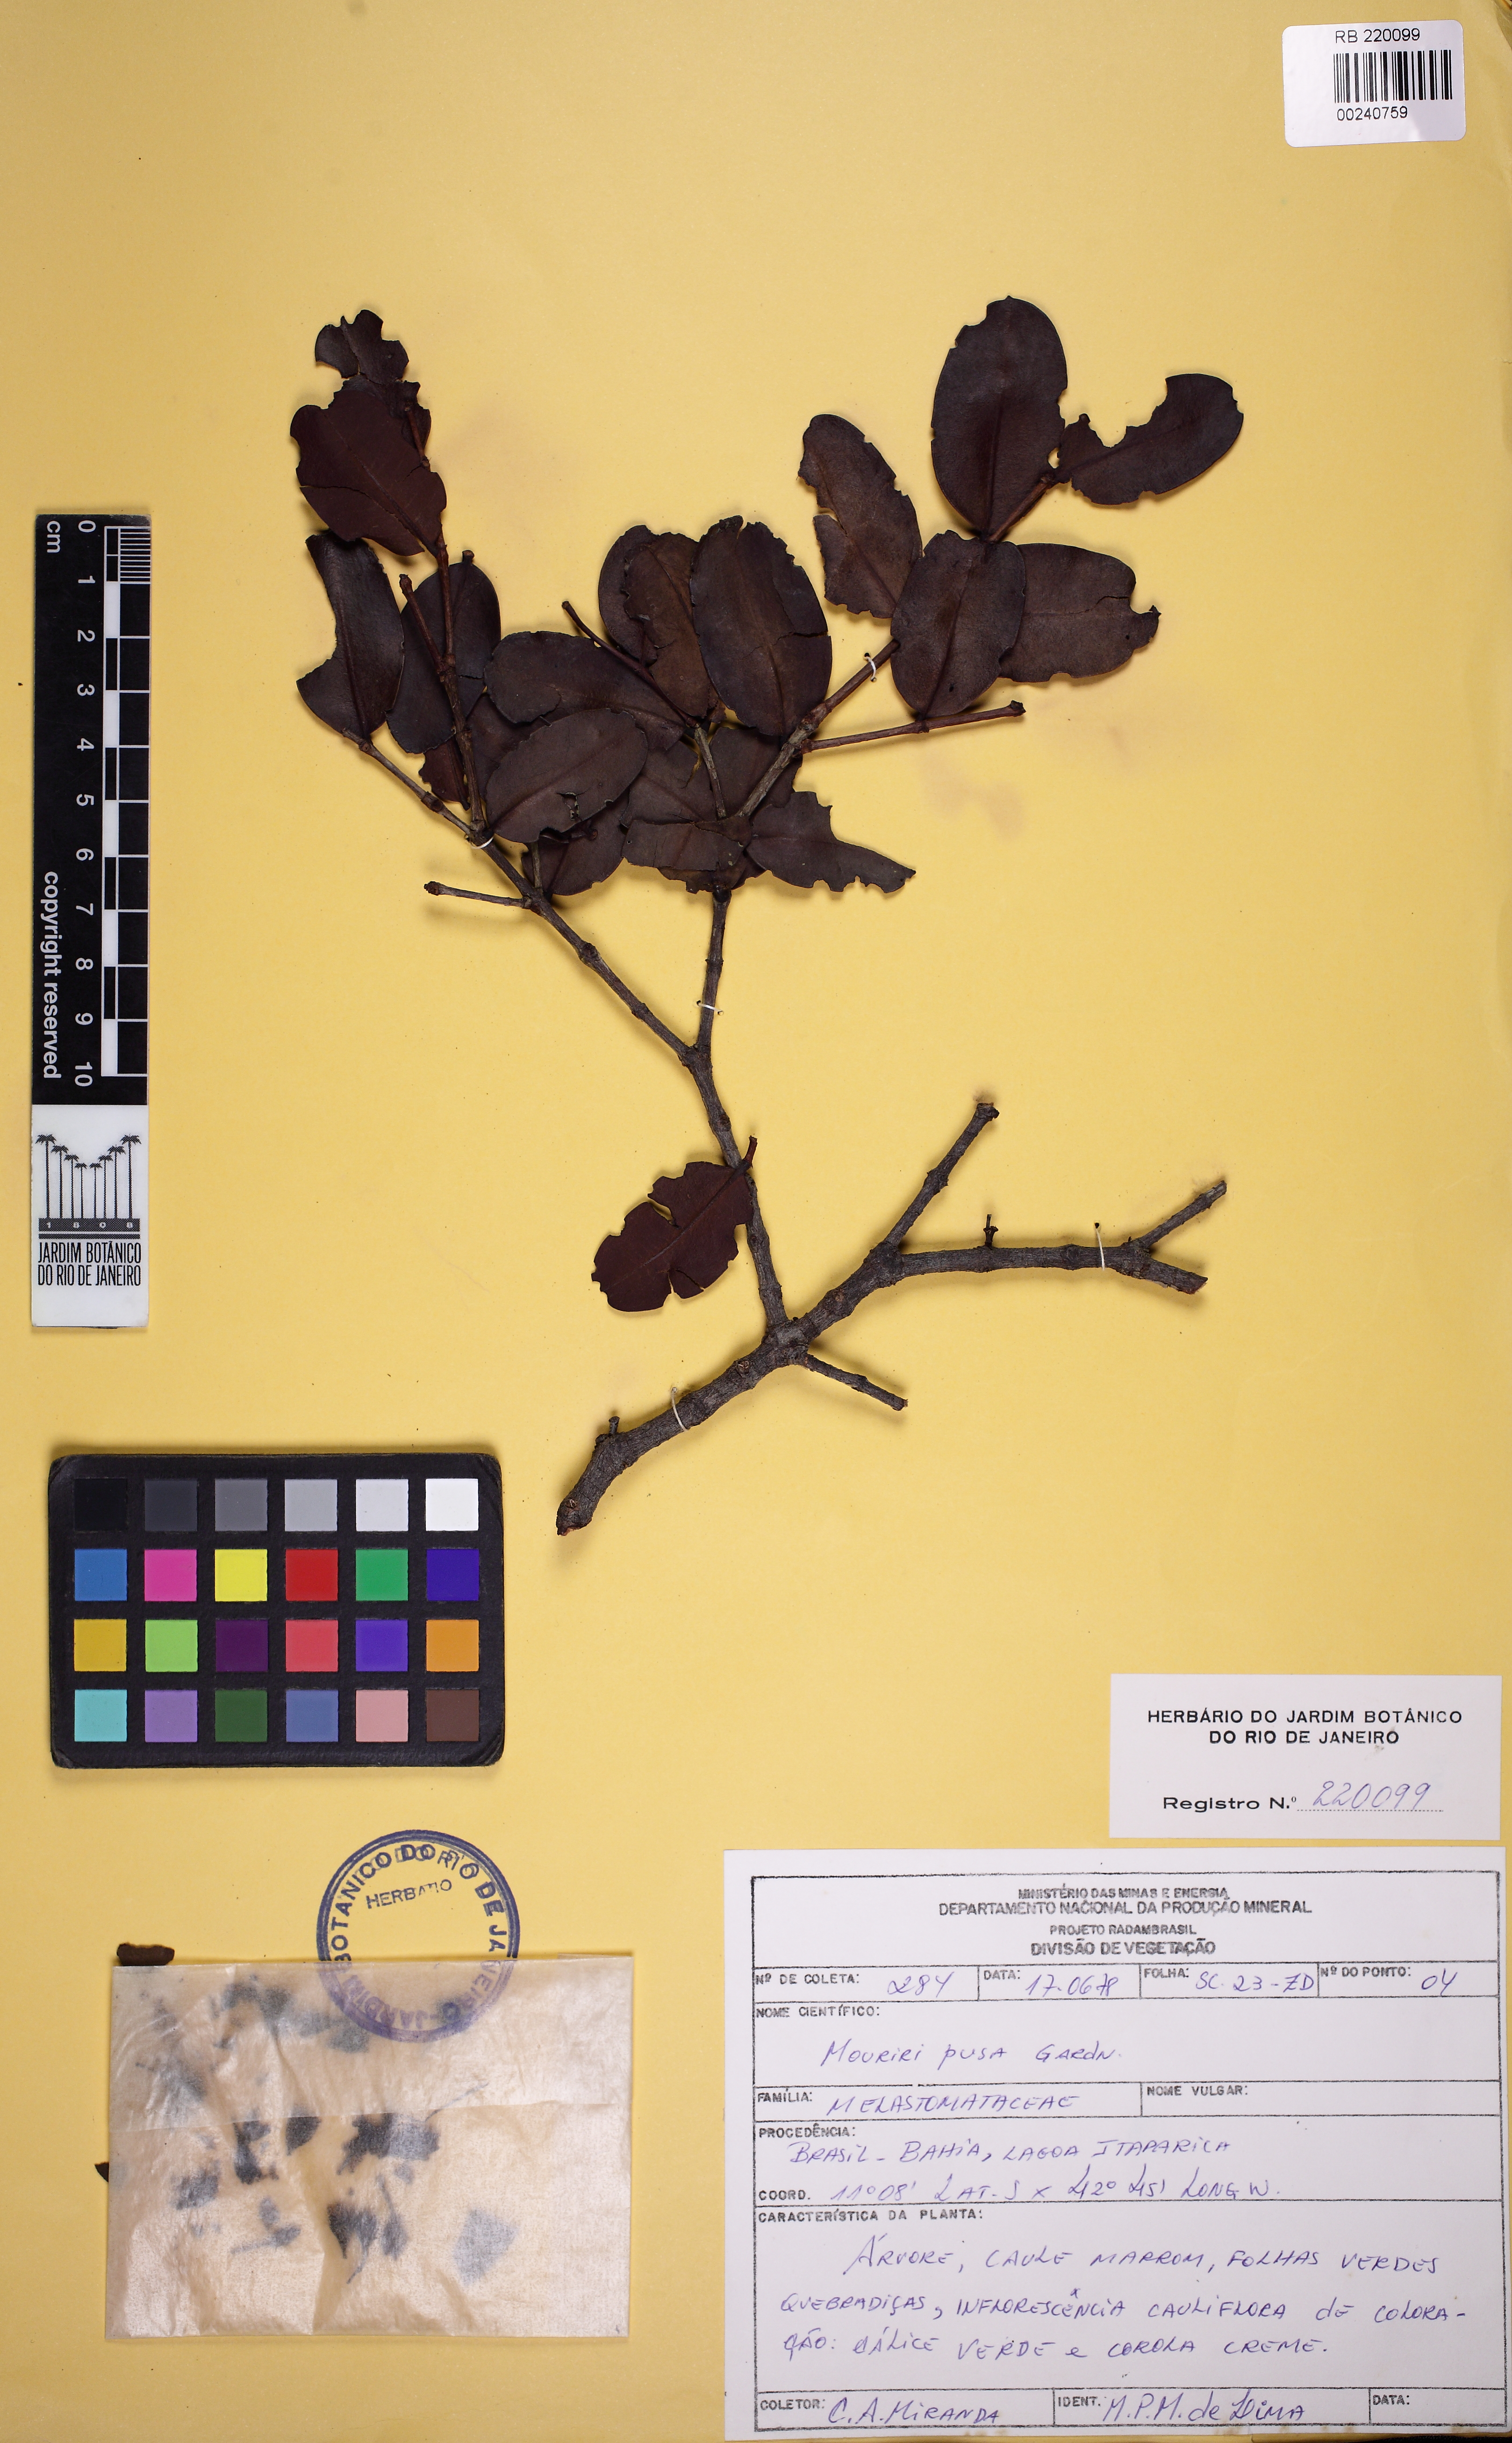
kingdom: Plantae
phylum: Tracheophyta
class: Magnoliopsida
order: Myrtales
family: Melastomataceae
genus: Mouriri
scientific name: Mouriri pusa
